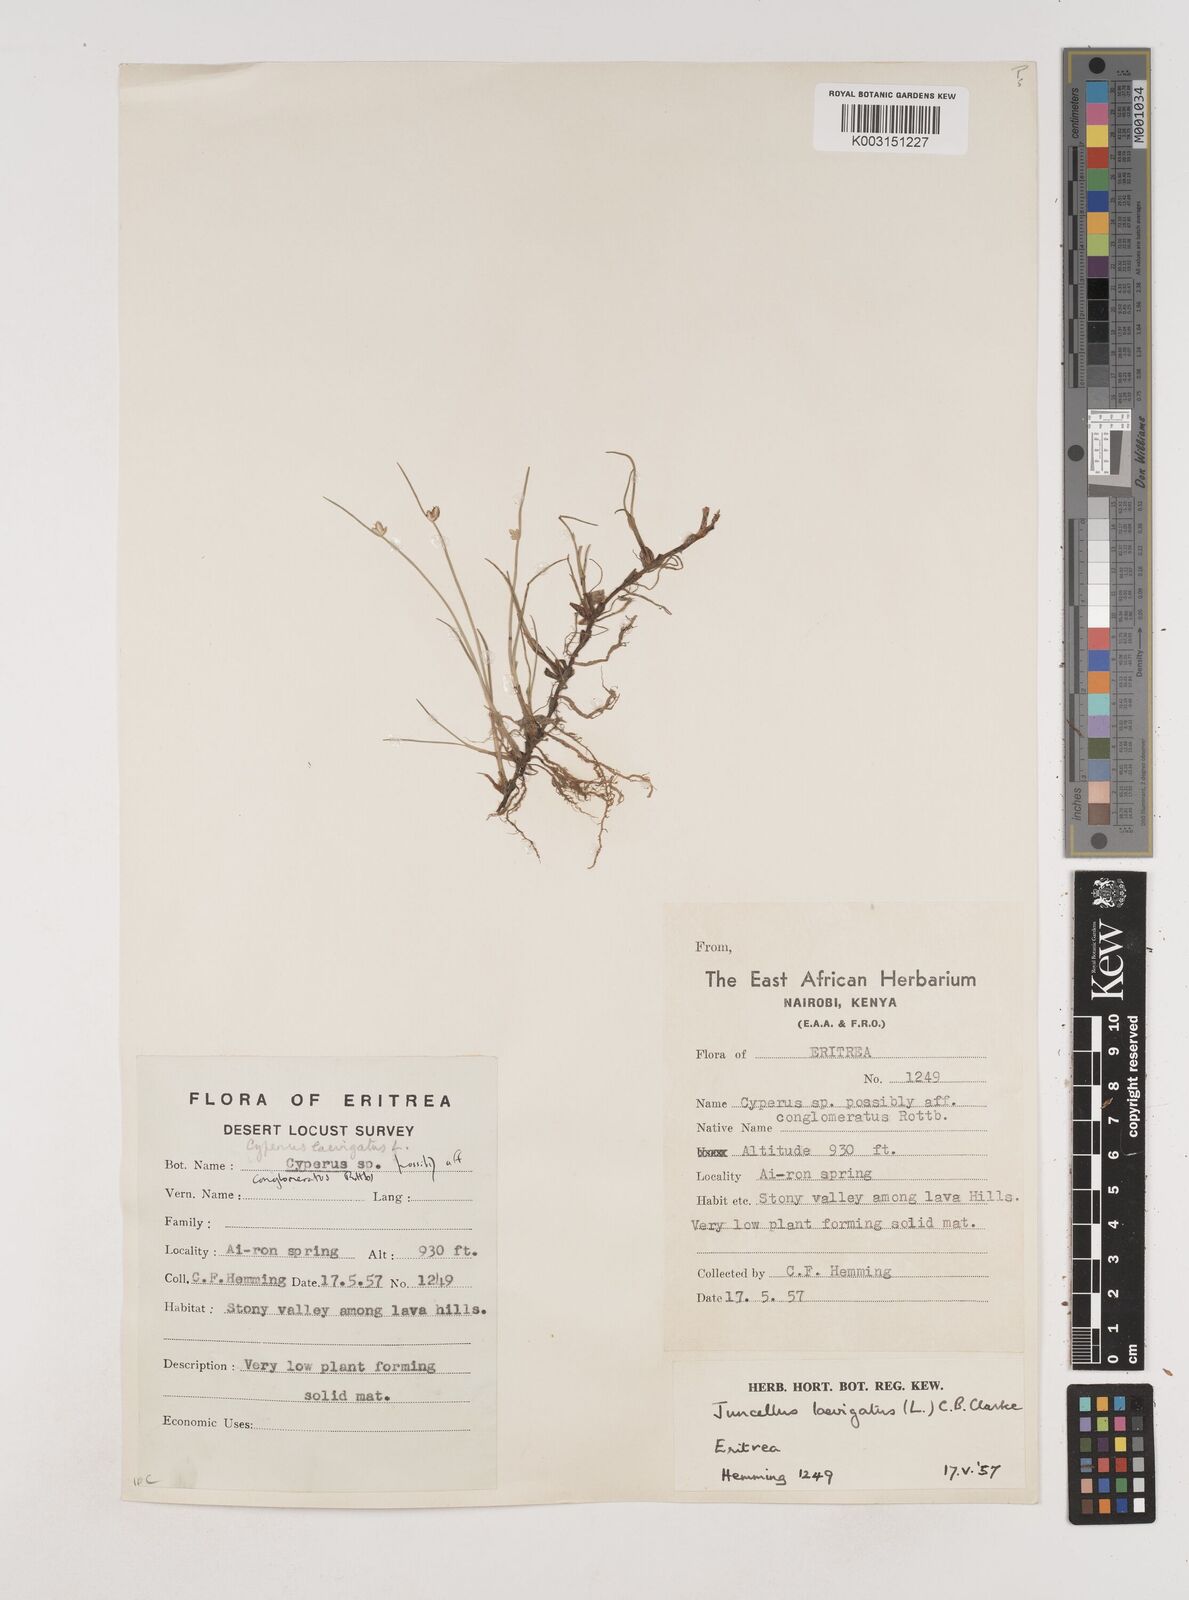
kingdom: Plantae
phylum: Tracheophyta
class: Liliopsida
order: Poales
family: Cyperaceae
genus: Cyperus
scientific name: Cyperus laevigatus
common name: Smooth flat sedge
